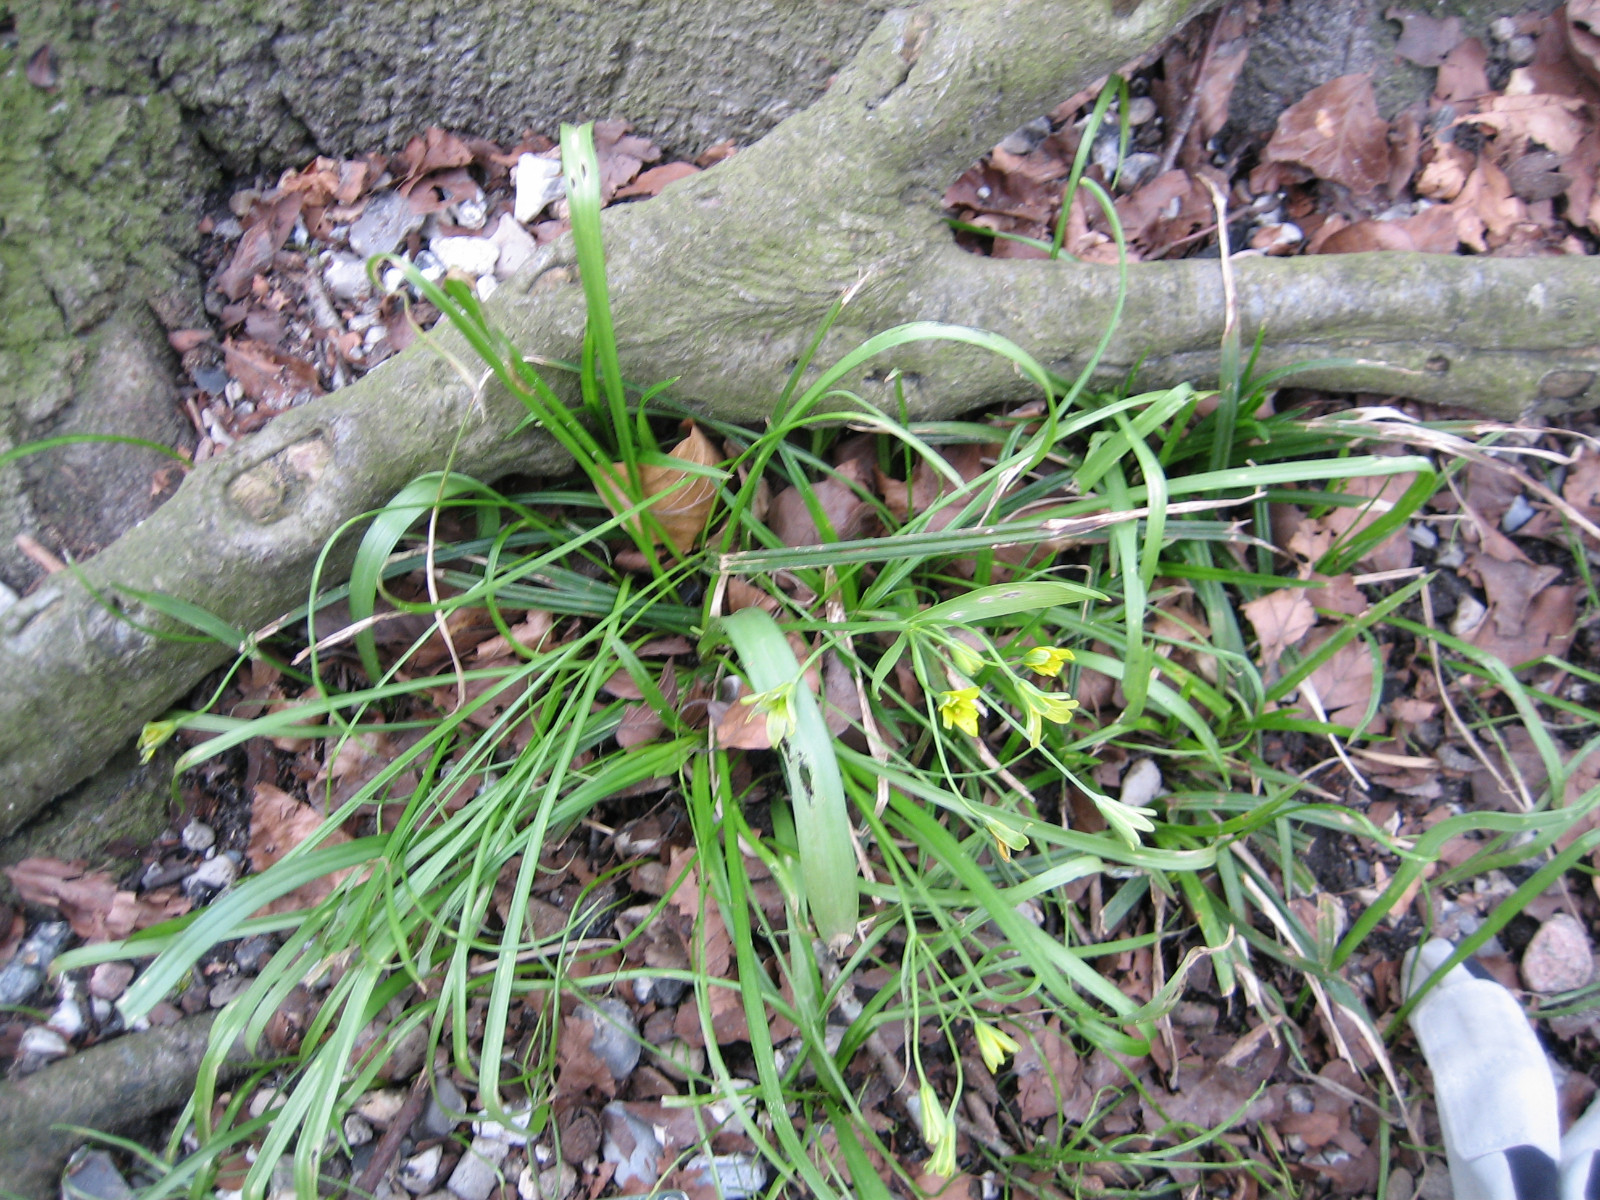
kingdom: Fungi
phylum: Basidiomycota
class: Ustilaginomycetes
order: Urocystidales
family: Urocystidaceae
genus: Vankya
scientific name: Vankya ornithogali
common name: Yellow star-of-bethlehem smut
